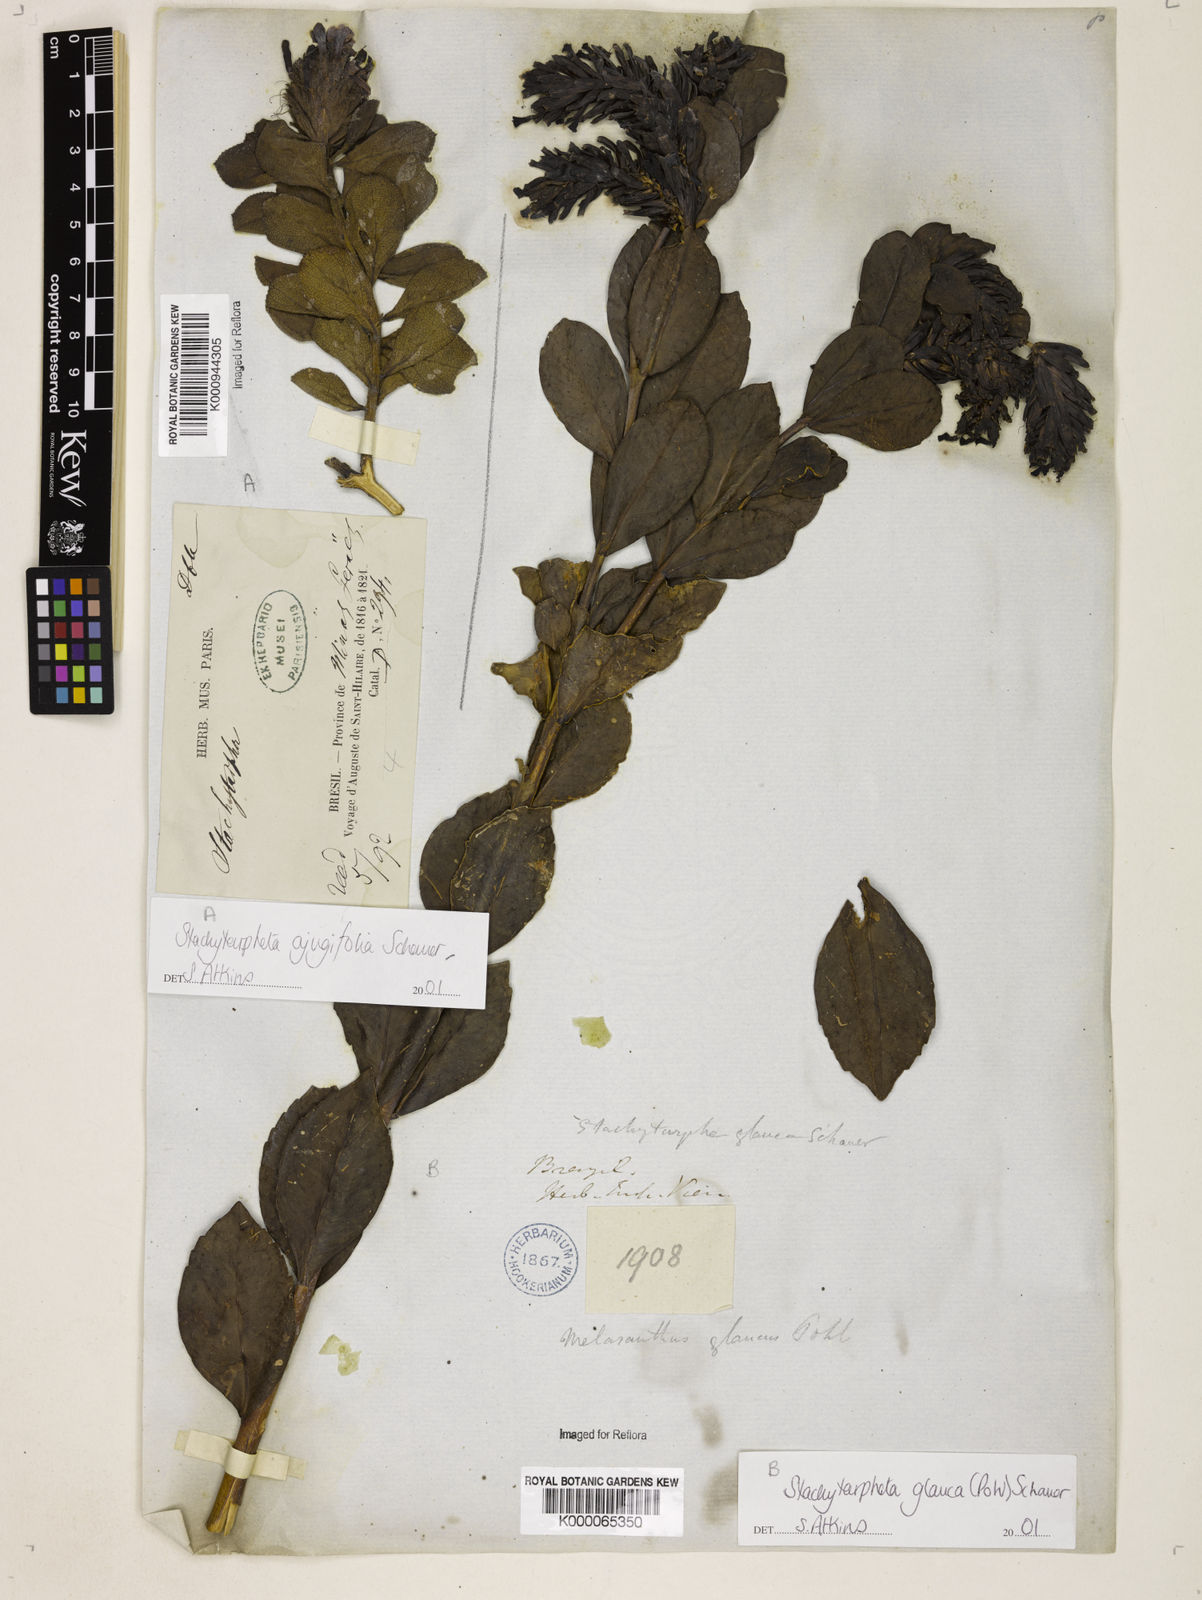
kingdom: Plantae
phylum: Tracheophyta
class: Magnoliopsida
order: Lamiales
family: Verbenaceae
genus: Stachytarpheta
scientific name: Stachytarpheta
